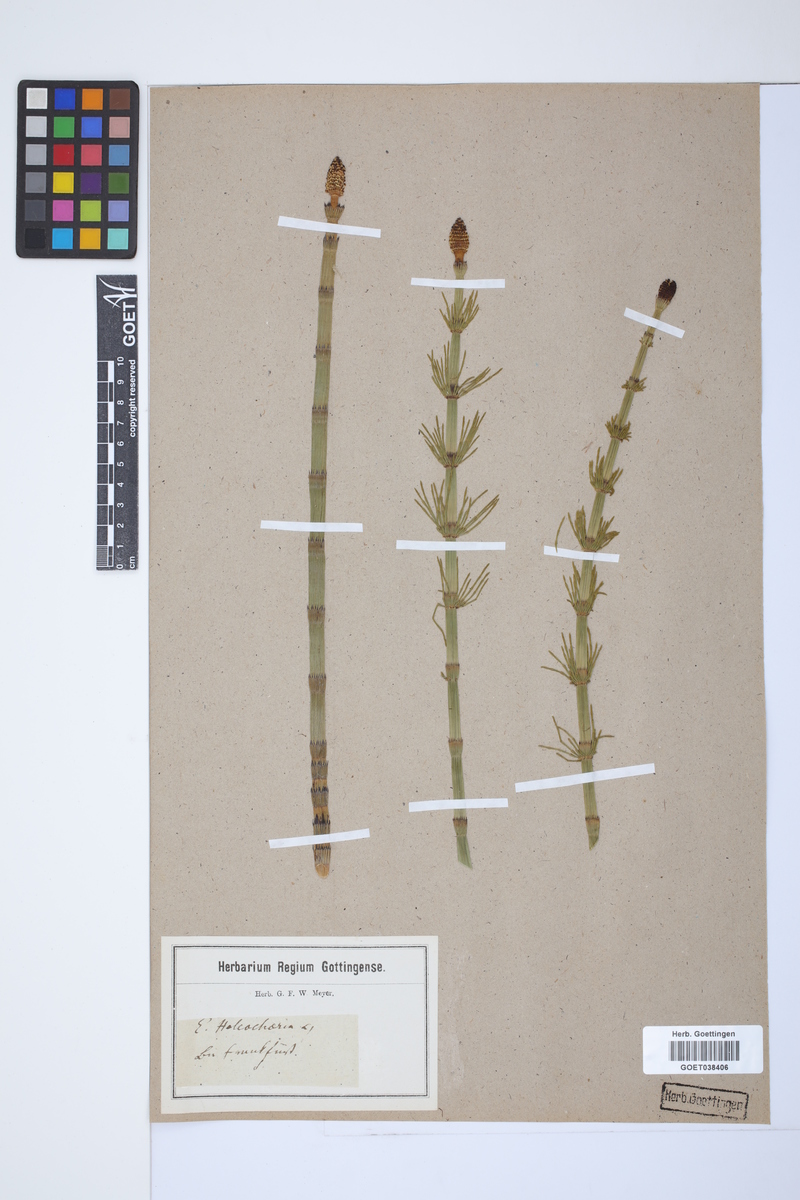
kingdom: Plantae
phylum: Tracheophyta
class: Polypodiopsida
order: Equisetales
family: Equisetaceae
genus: Equisetum
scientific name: Equisetum fluviatile
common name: Water horsetail
